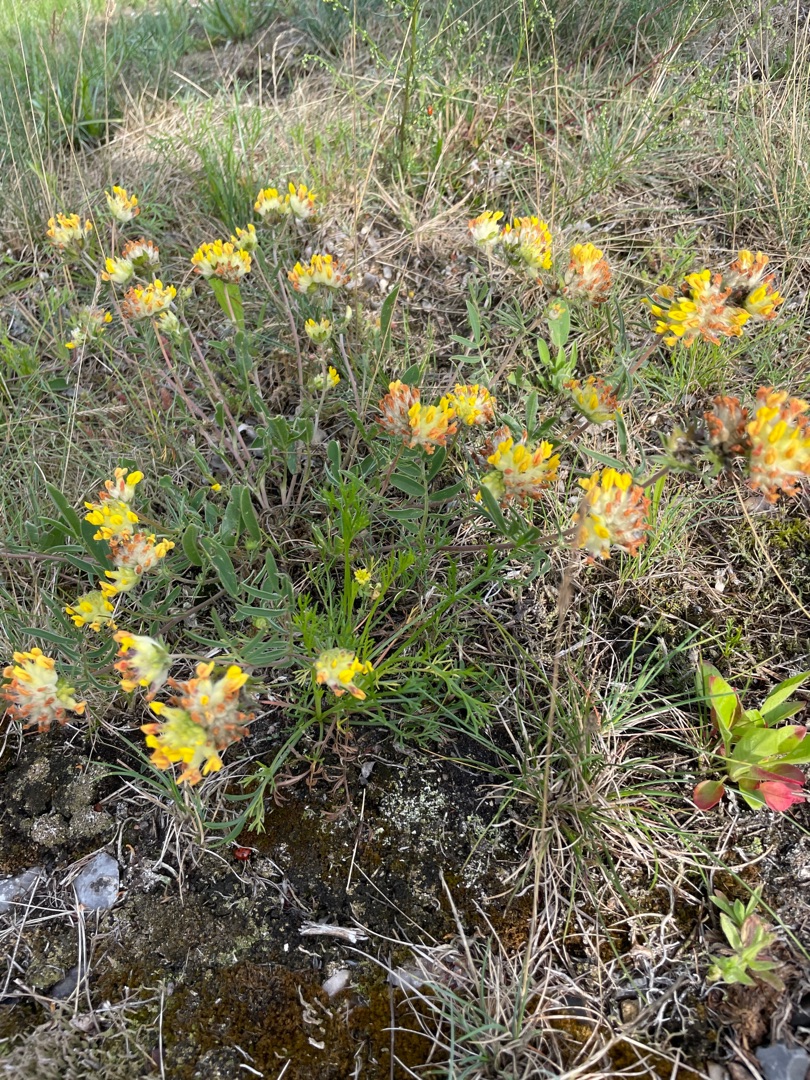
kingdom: Plantae
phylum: Tracheophyta
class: Magnoliopsida
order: Fabales
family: Fabaceae
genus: Anthyllis
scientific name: Anthyllis vulneraria
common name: Rundbælg
